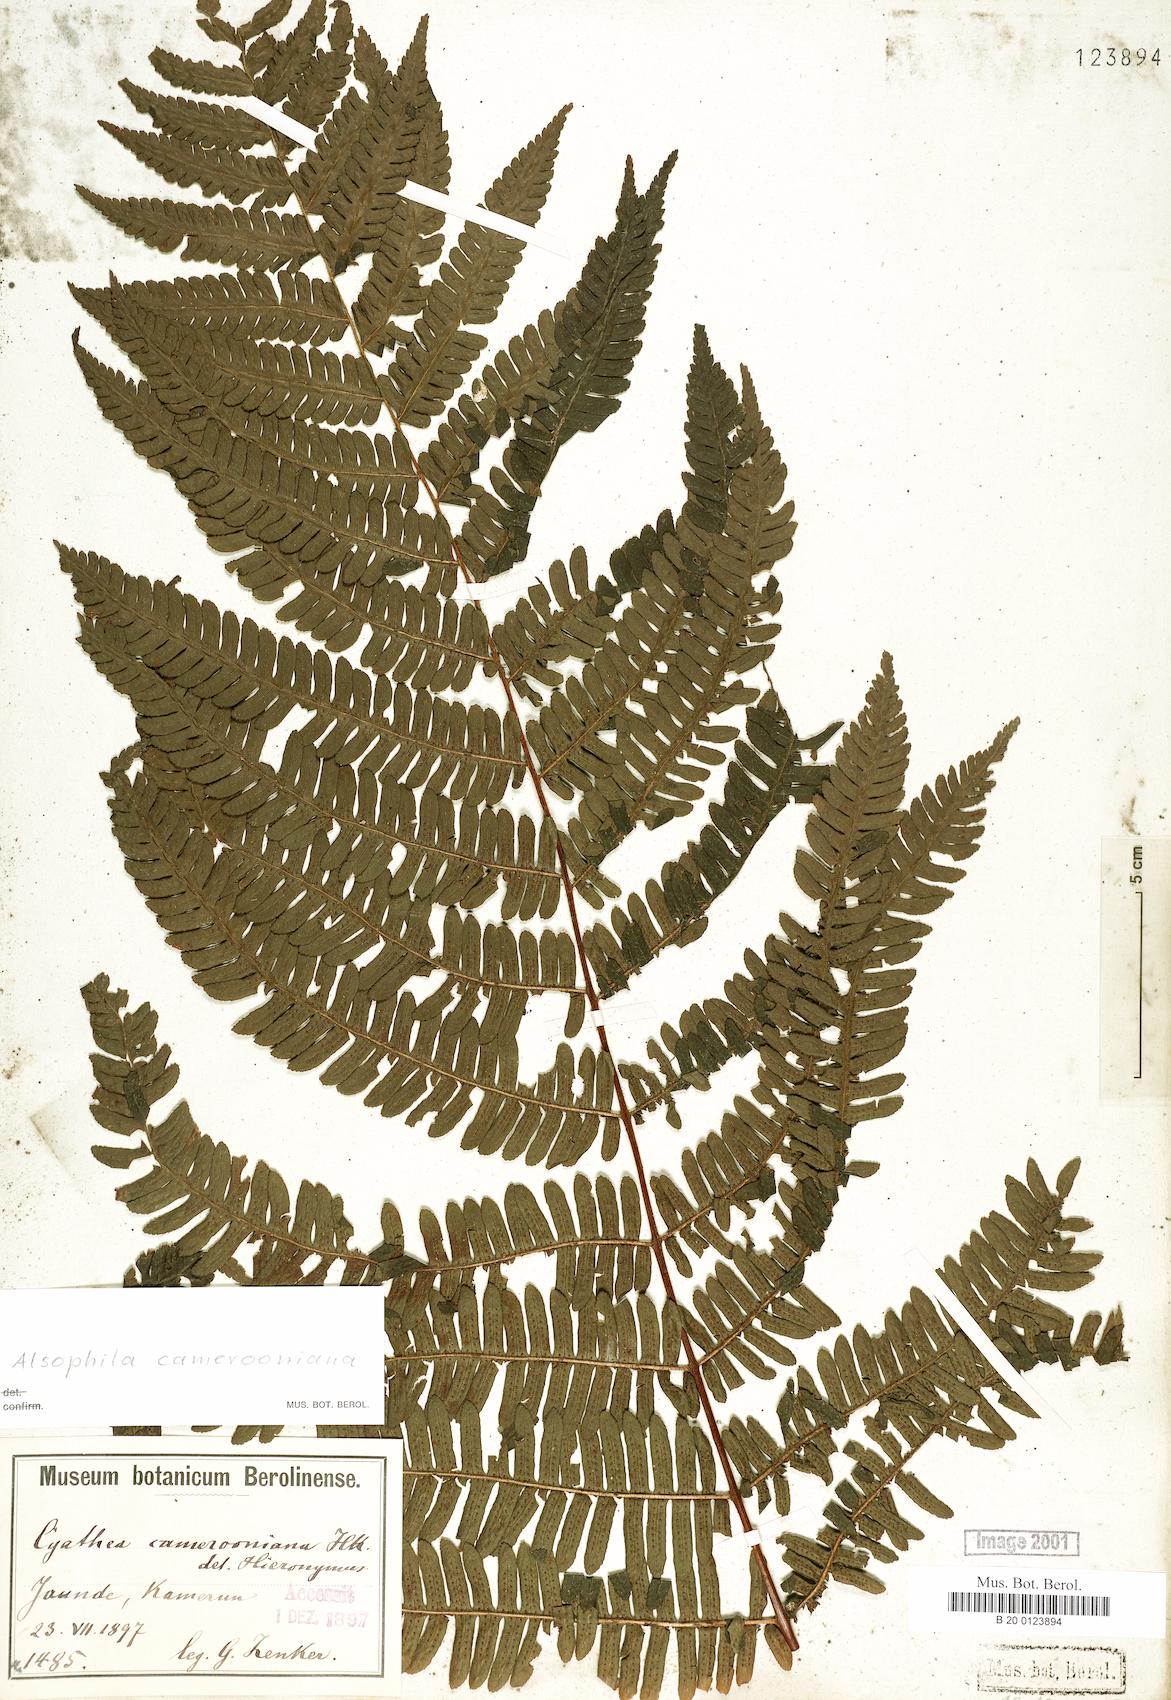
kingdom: Plantae
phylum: Tracheophyta
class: Polypodiopsida
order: Cyatheales
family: Cyatheaceae
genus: Alsophila
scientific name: Alsophila camerooniana
